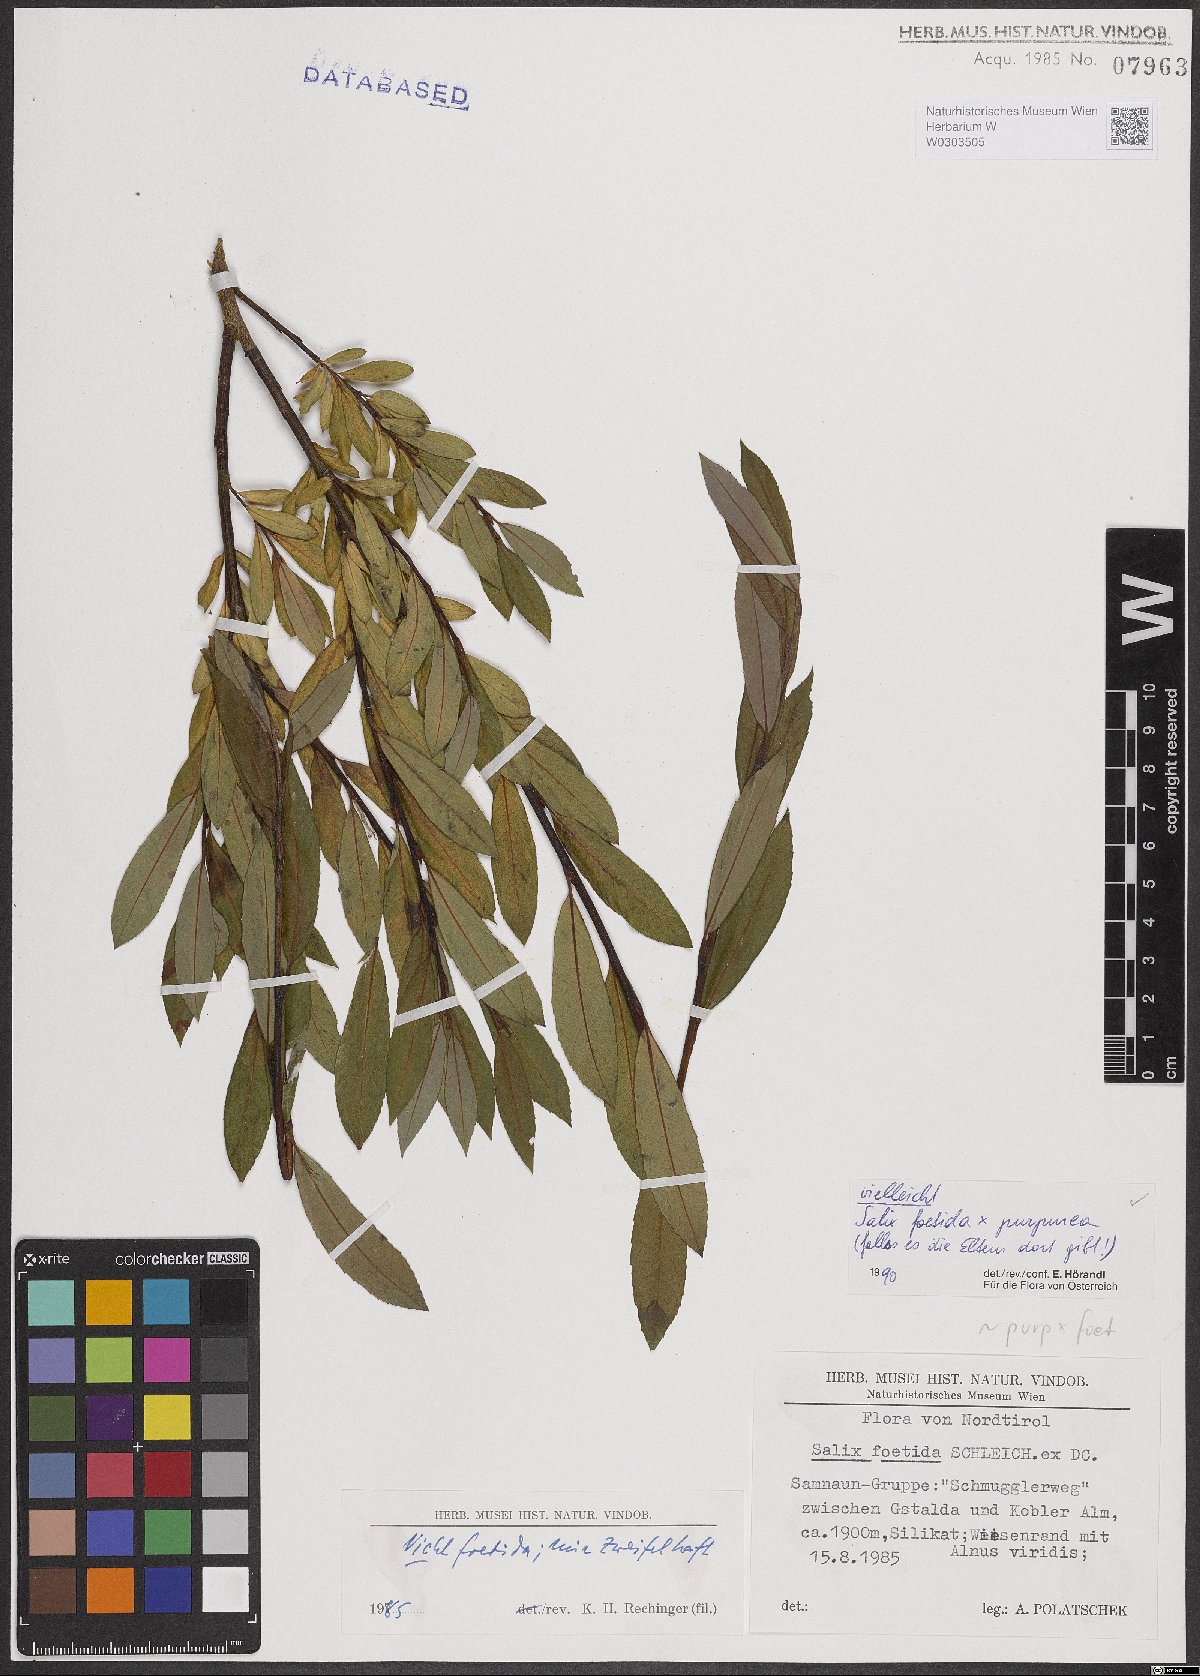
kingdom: Plantae
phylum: Tracheophyta
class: Magnoliopsida
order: Malpighiales
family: Salicaceae
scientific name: Salicaceae
